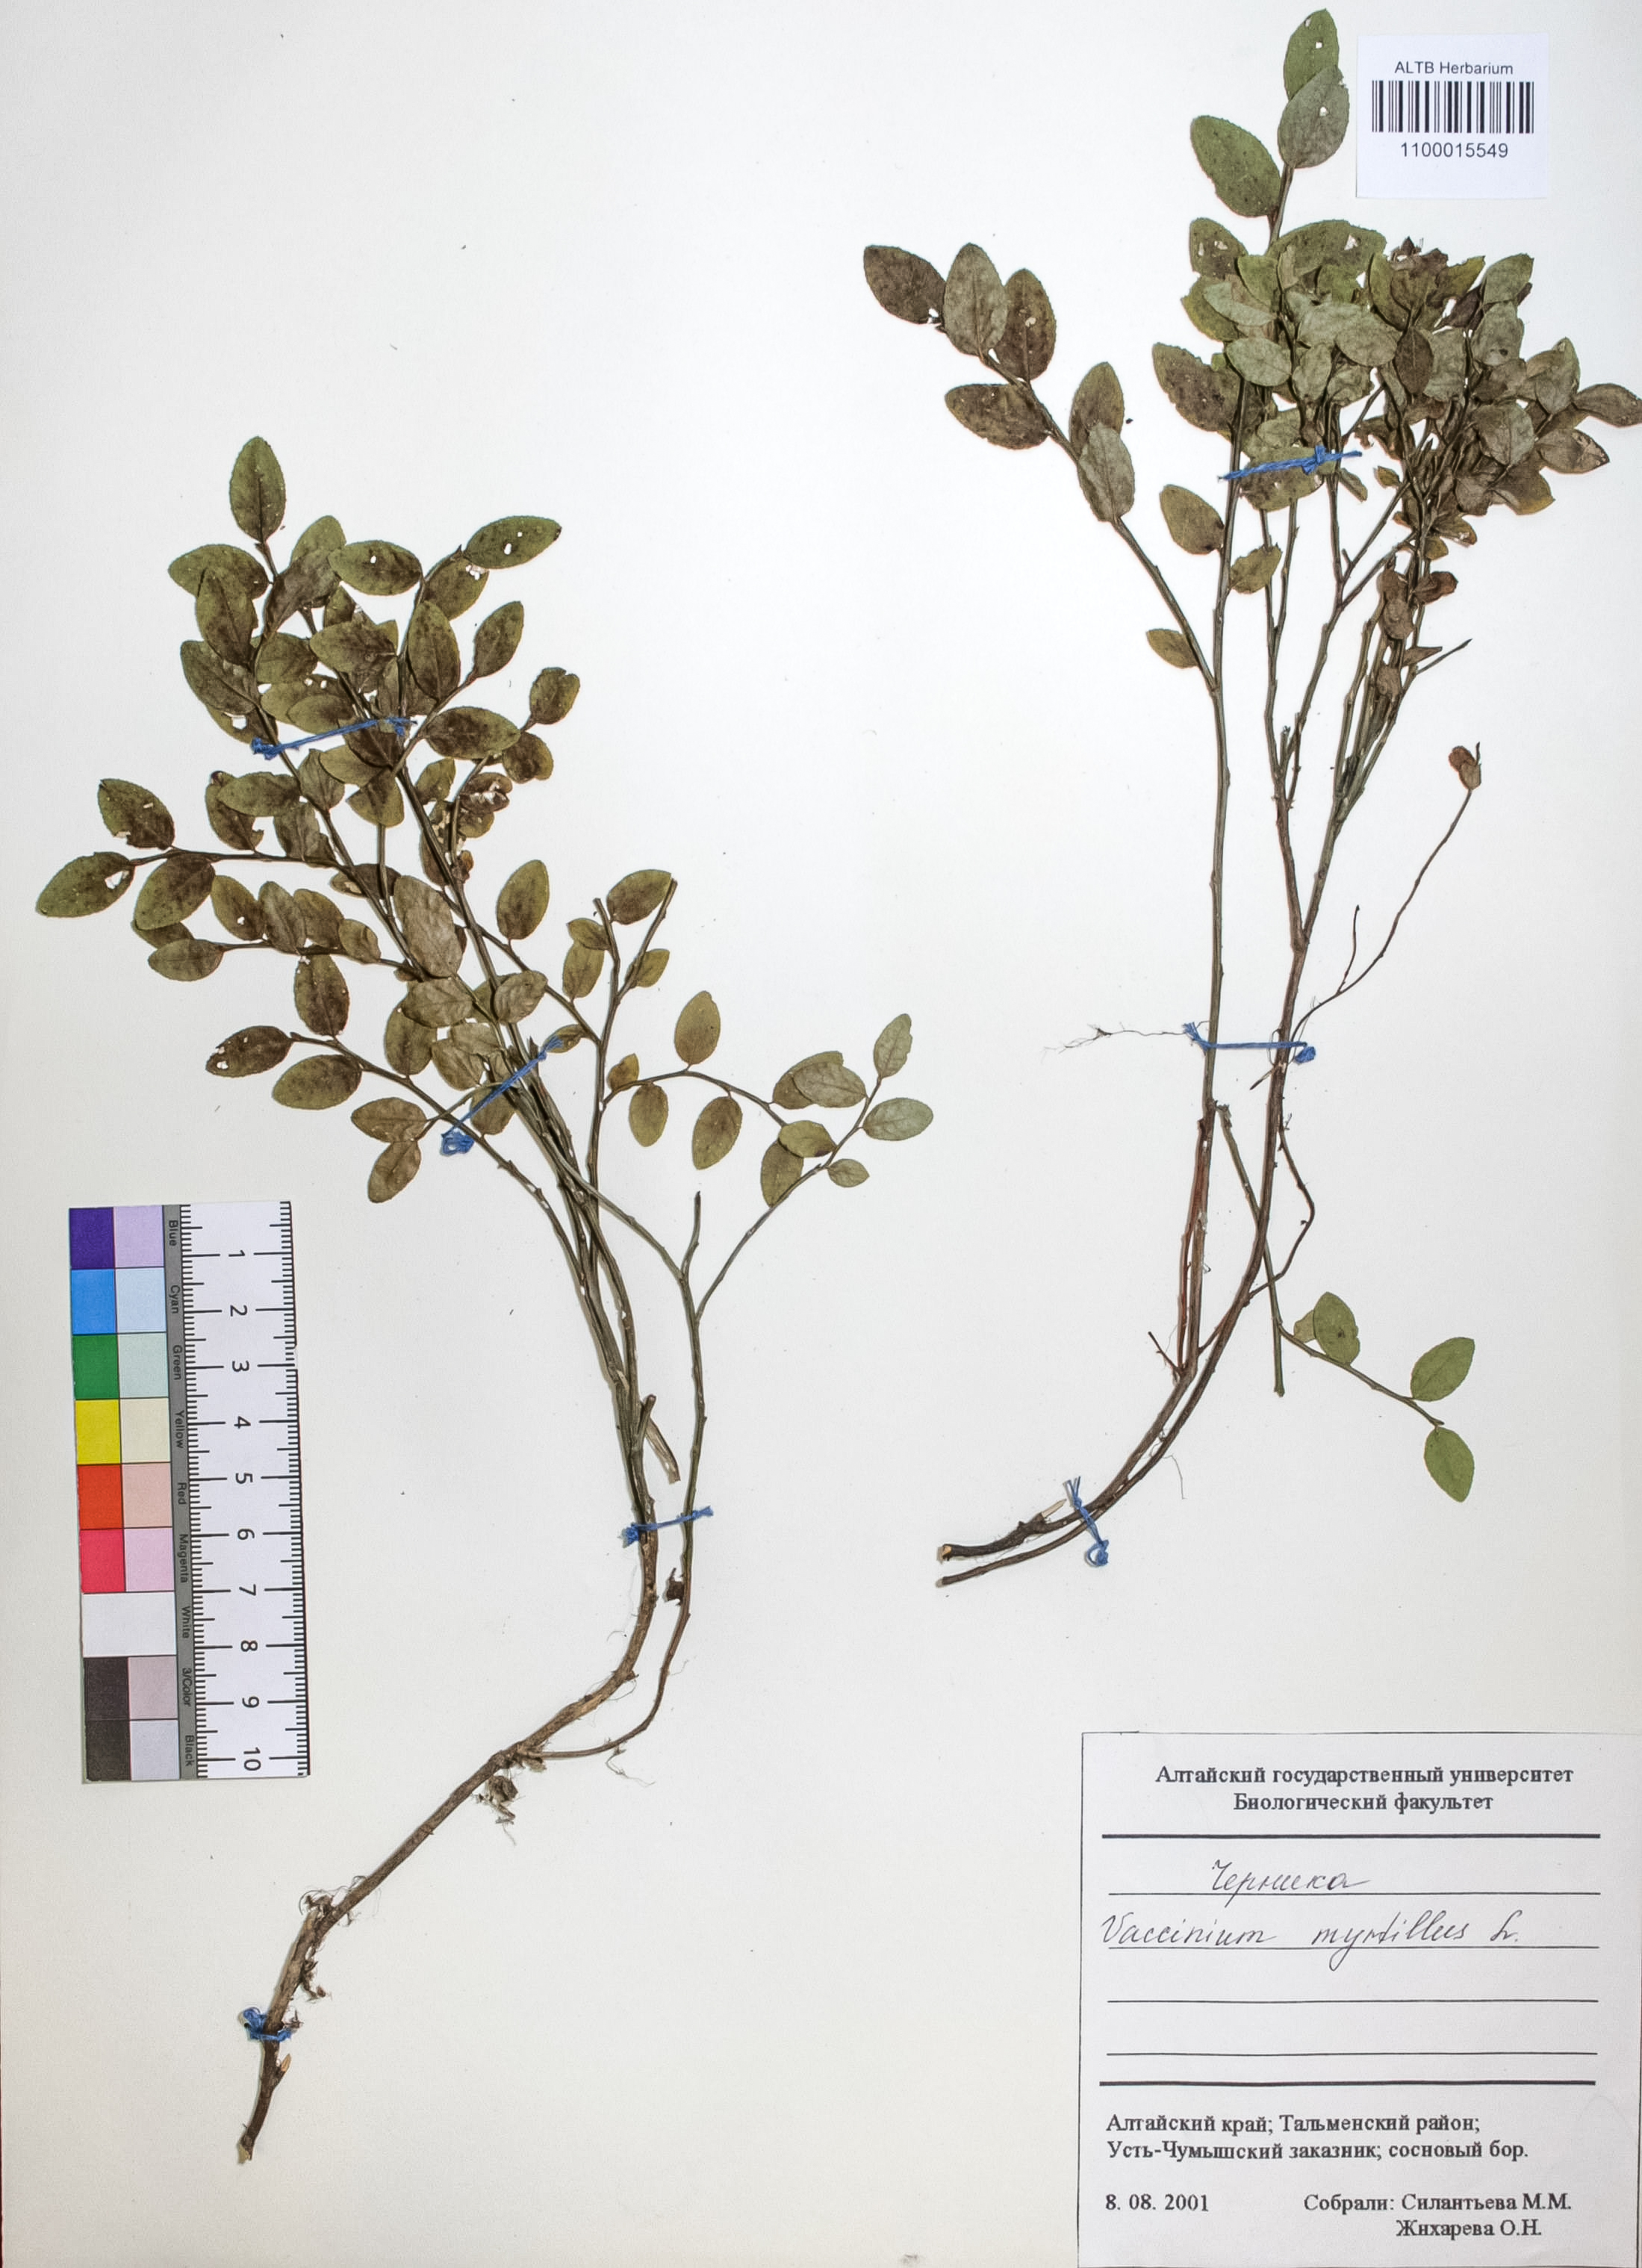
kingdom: Plantae
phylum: Tracheophyta
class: Magnoliopsida
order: Ericales
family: Ericaceae
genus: Vaccinium
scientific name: Vaccinium myrtillus
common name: Bilberry
